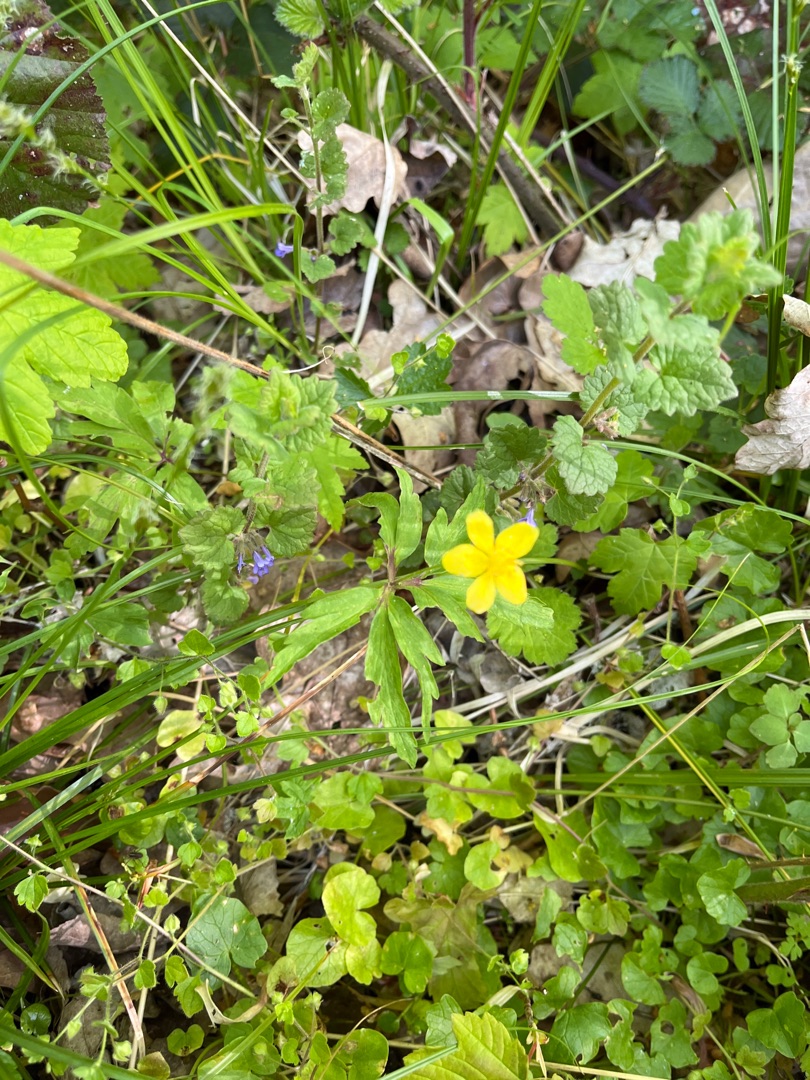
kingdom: Plantae
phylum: Tracheophyta
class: Magnoliopsida
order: Ranunculales
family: Ranunculaceae
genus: Anemone
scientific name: Anemone ranunculoides
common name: Gul anemone
